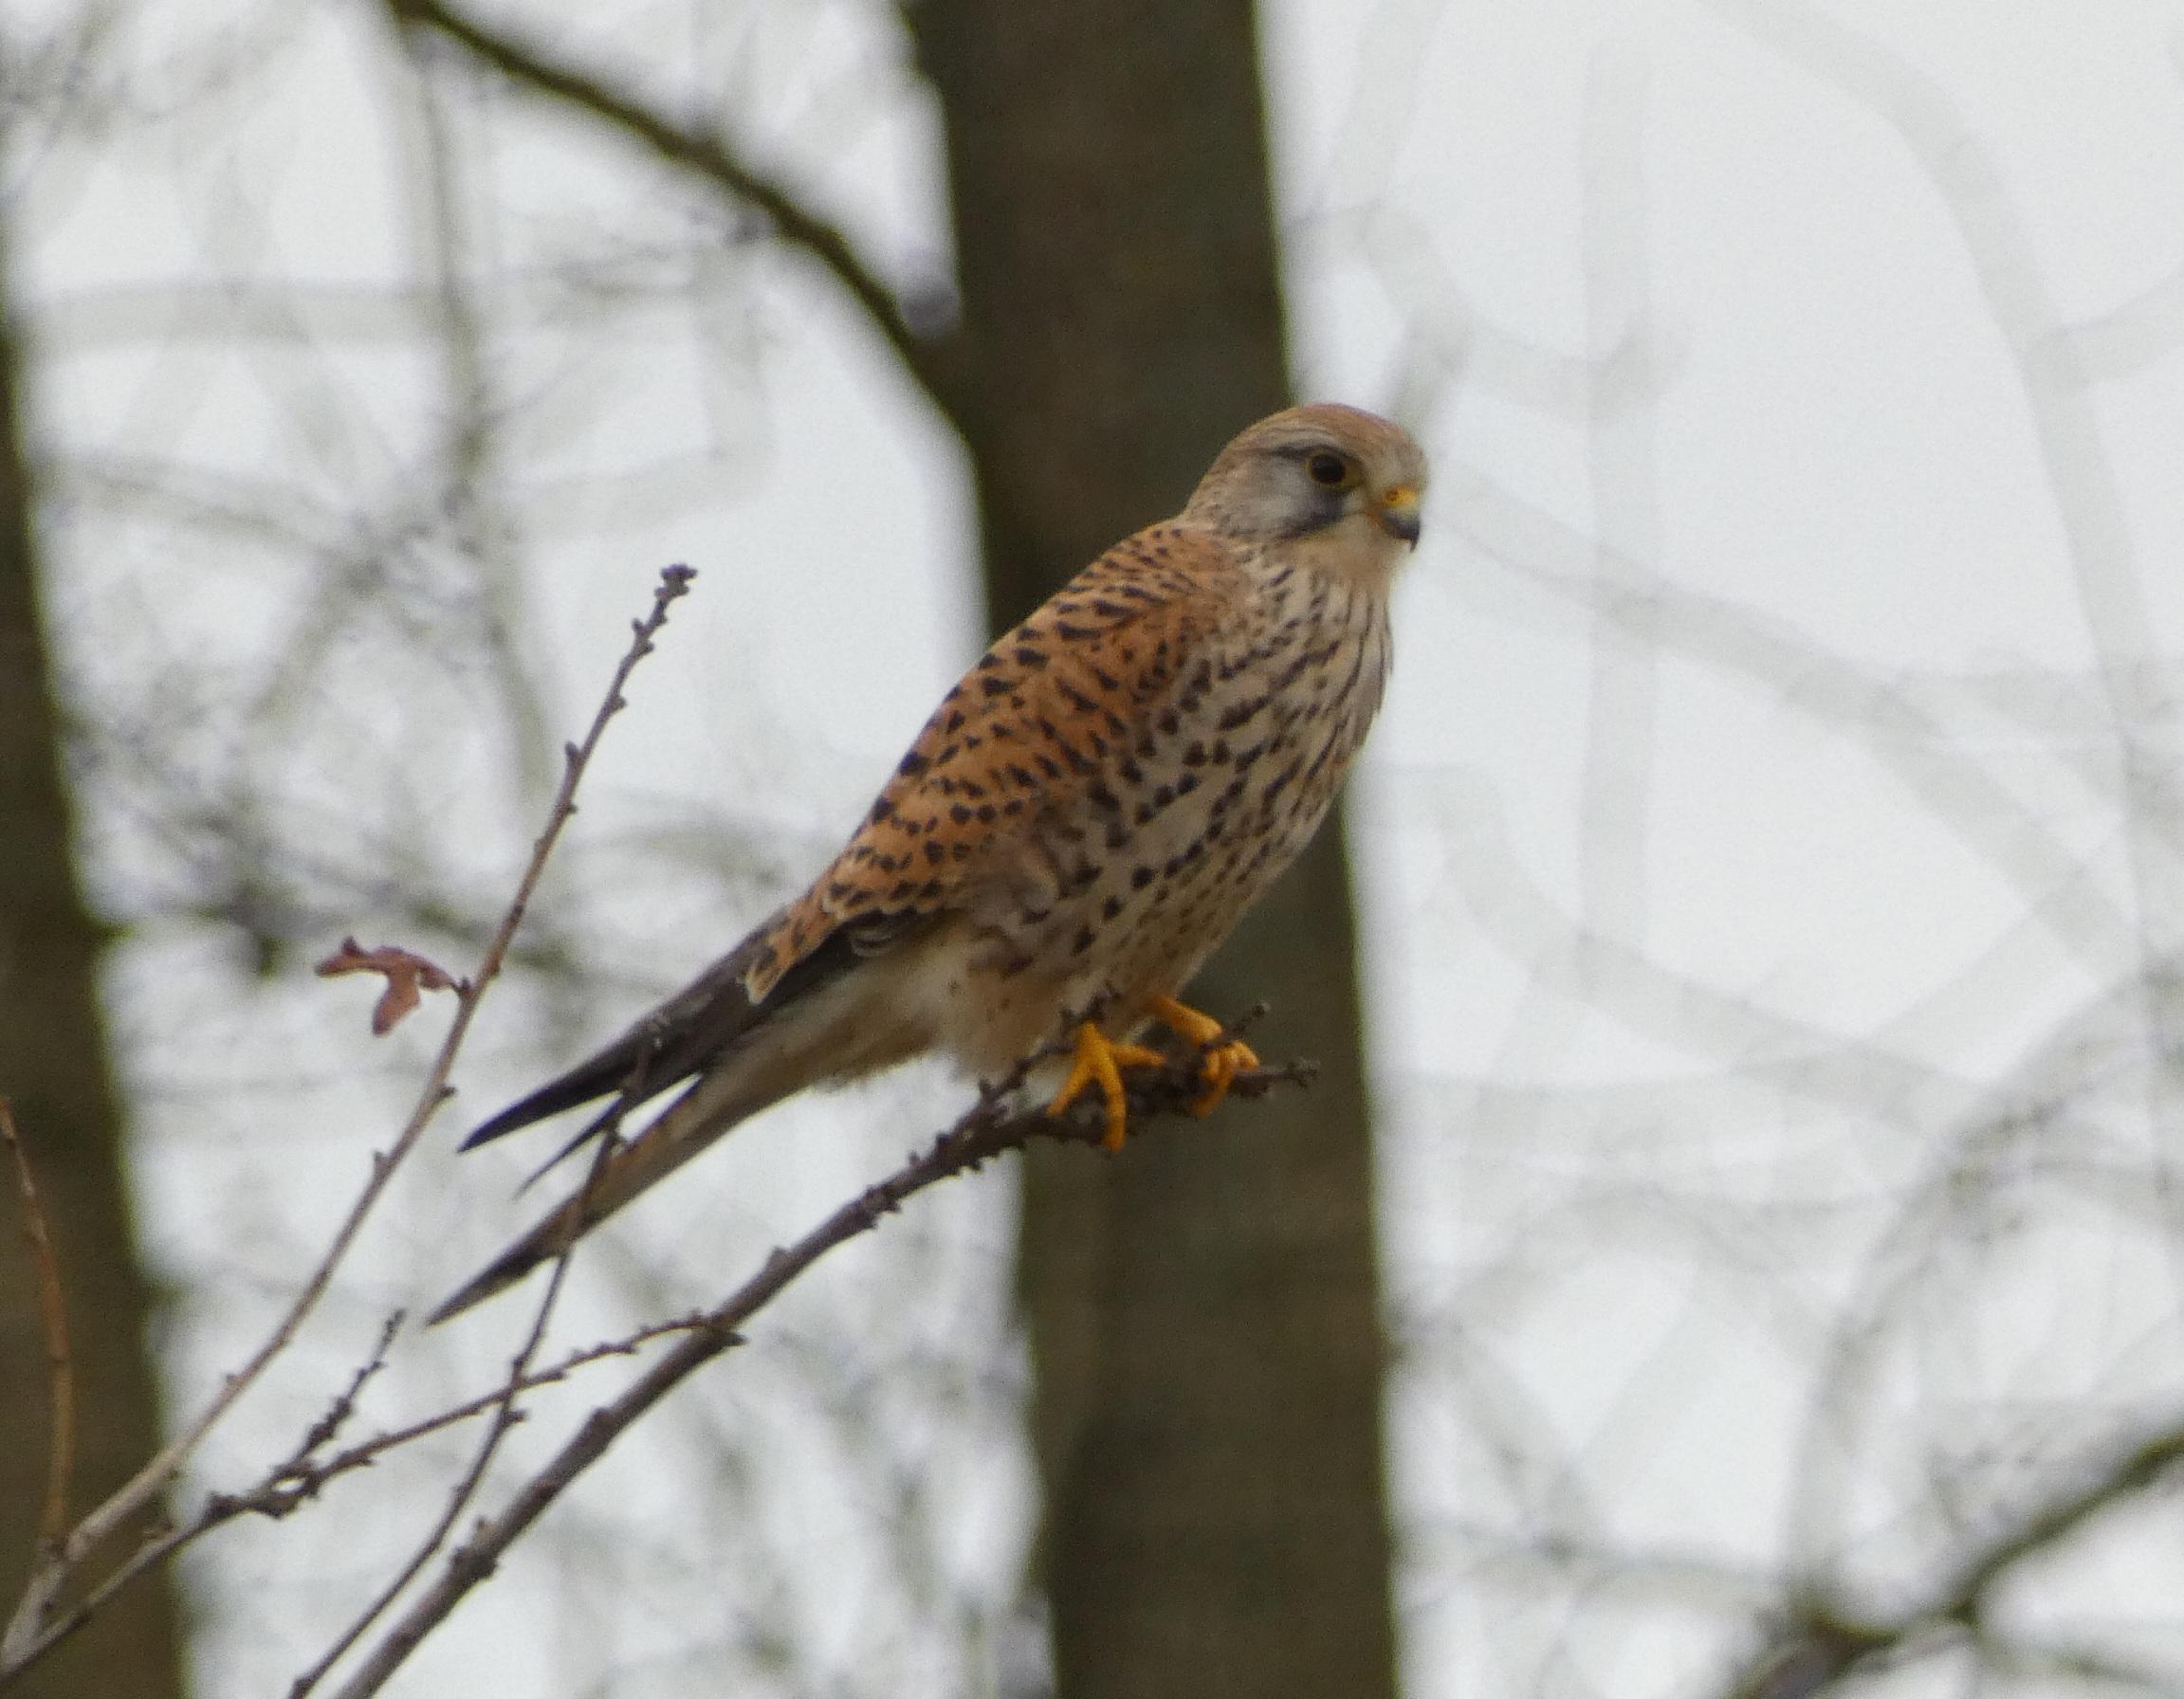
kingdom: Animalia
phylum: Chordata
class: Aves
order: Falconiformes
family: Falconidae
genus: Falco
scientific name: Falco tinnunculus
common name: Tårnfalk
